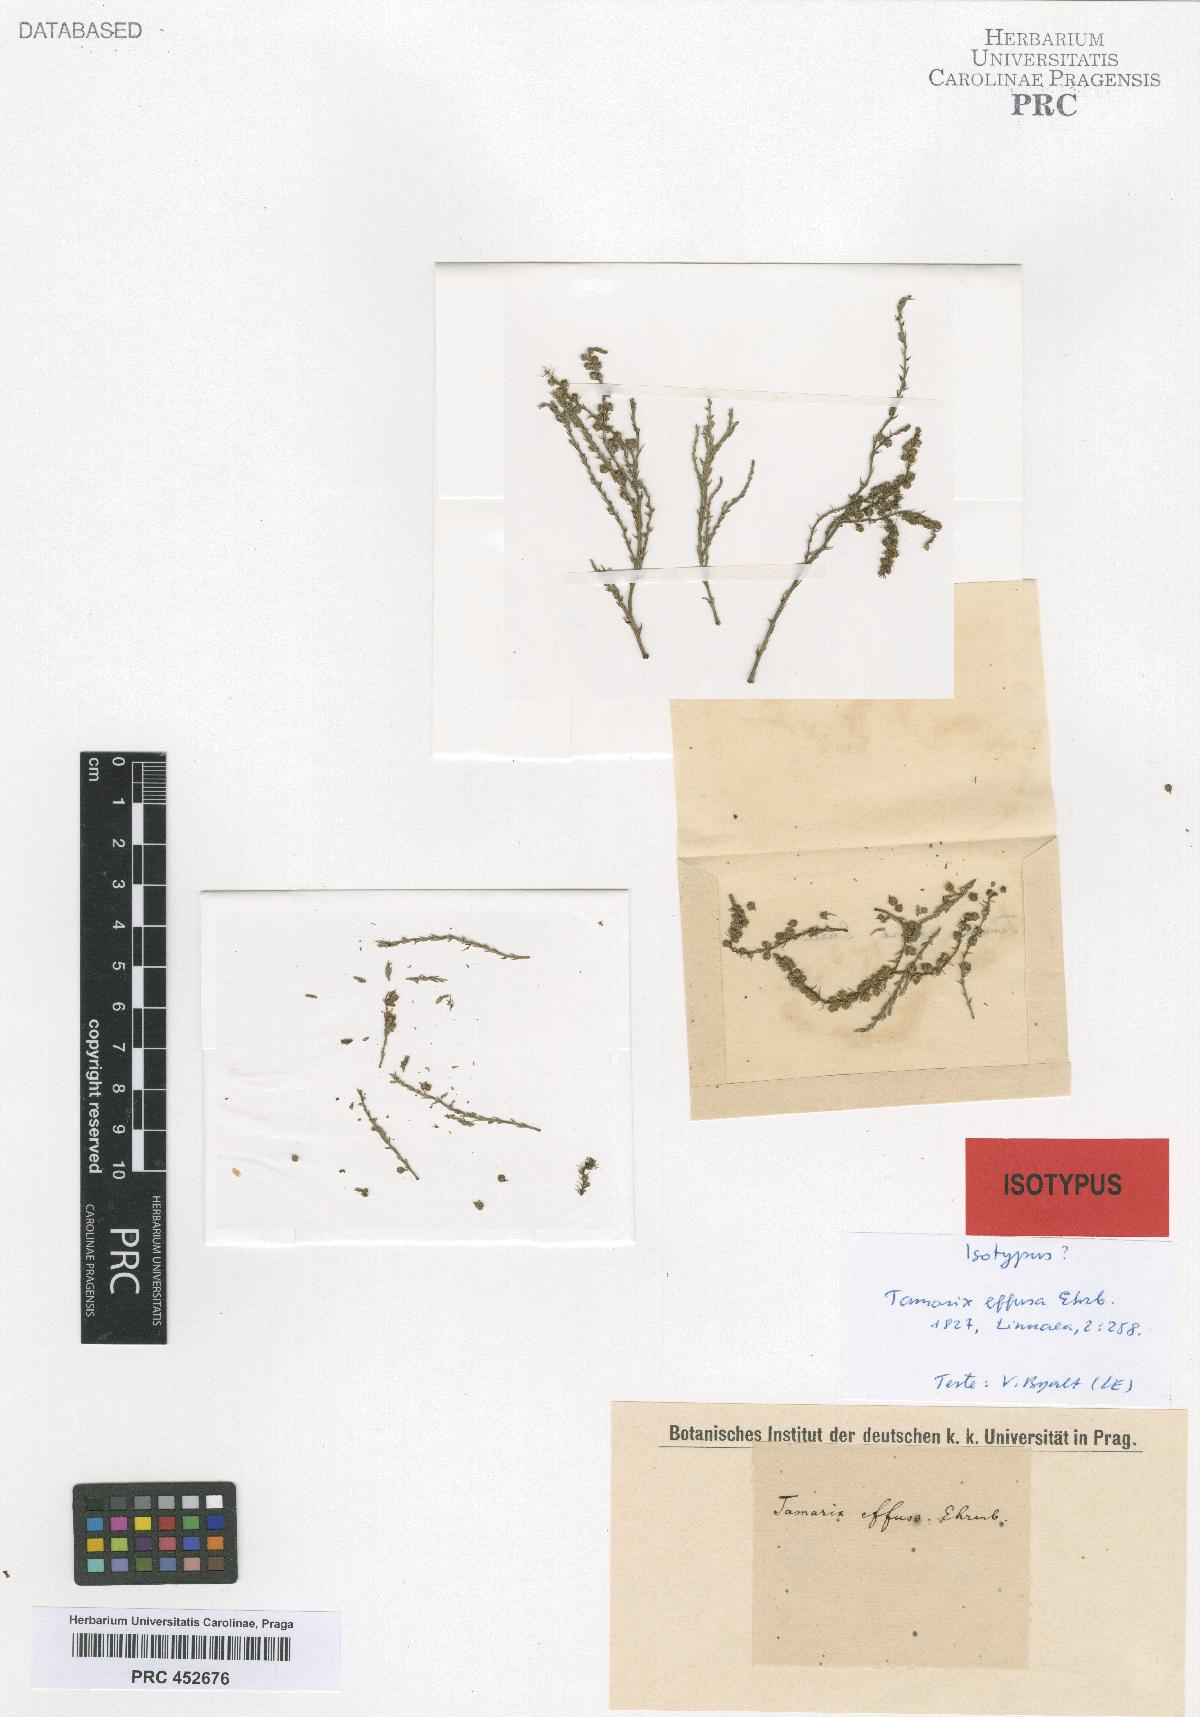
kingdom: Plantae
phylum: Tracheophyta
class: Magnoliopsida
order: Caryophyllales
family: Tamaricaceae
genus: Tamarix
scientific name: Tamarix tetragyna
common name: Four-stamen tamarisk
